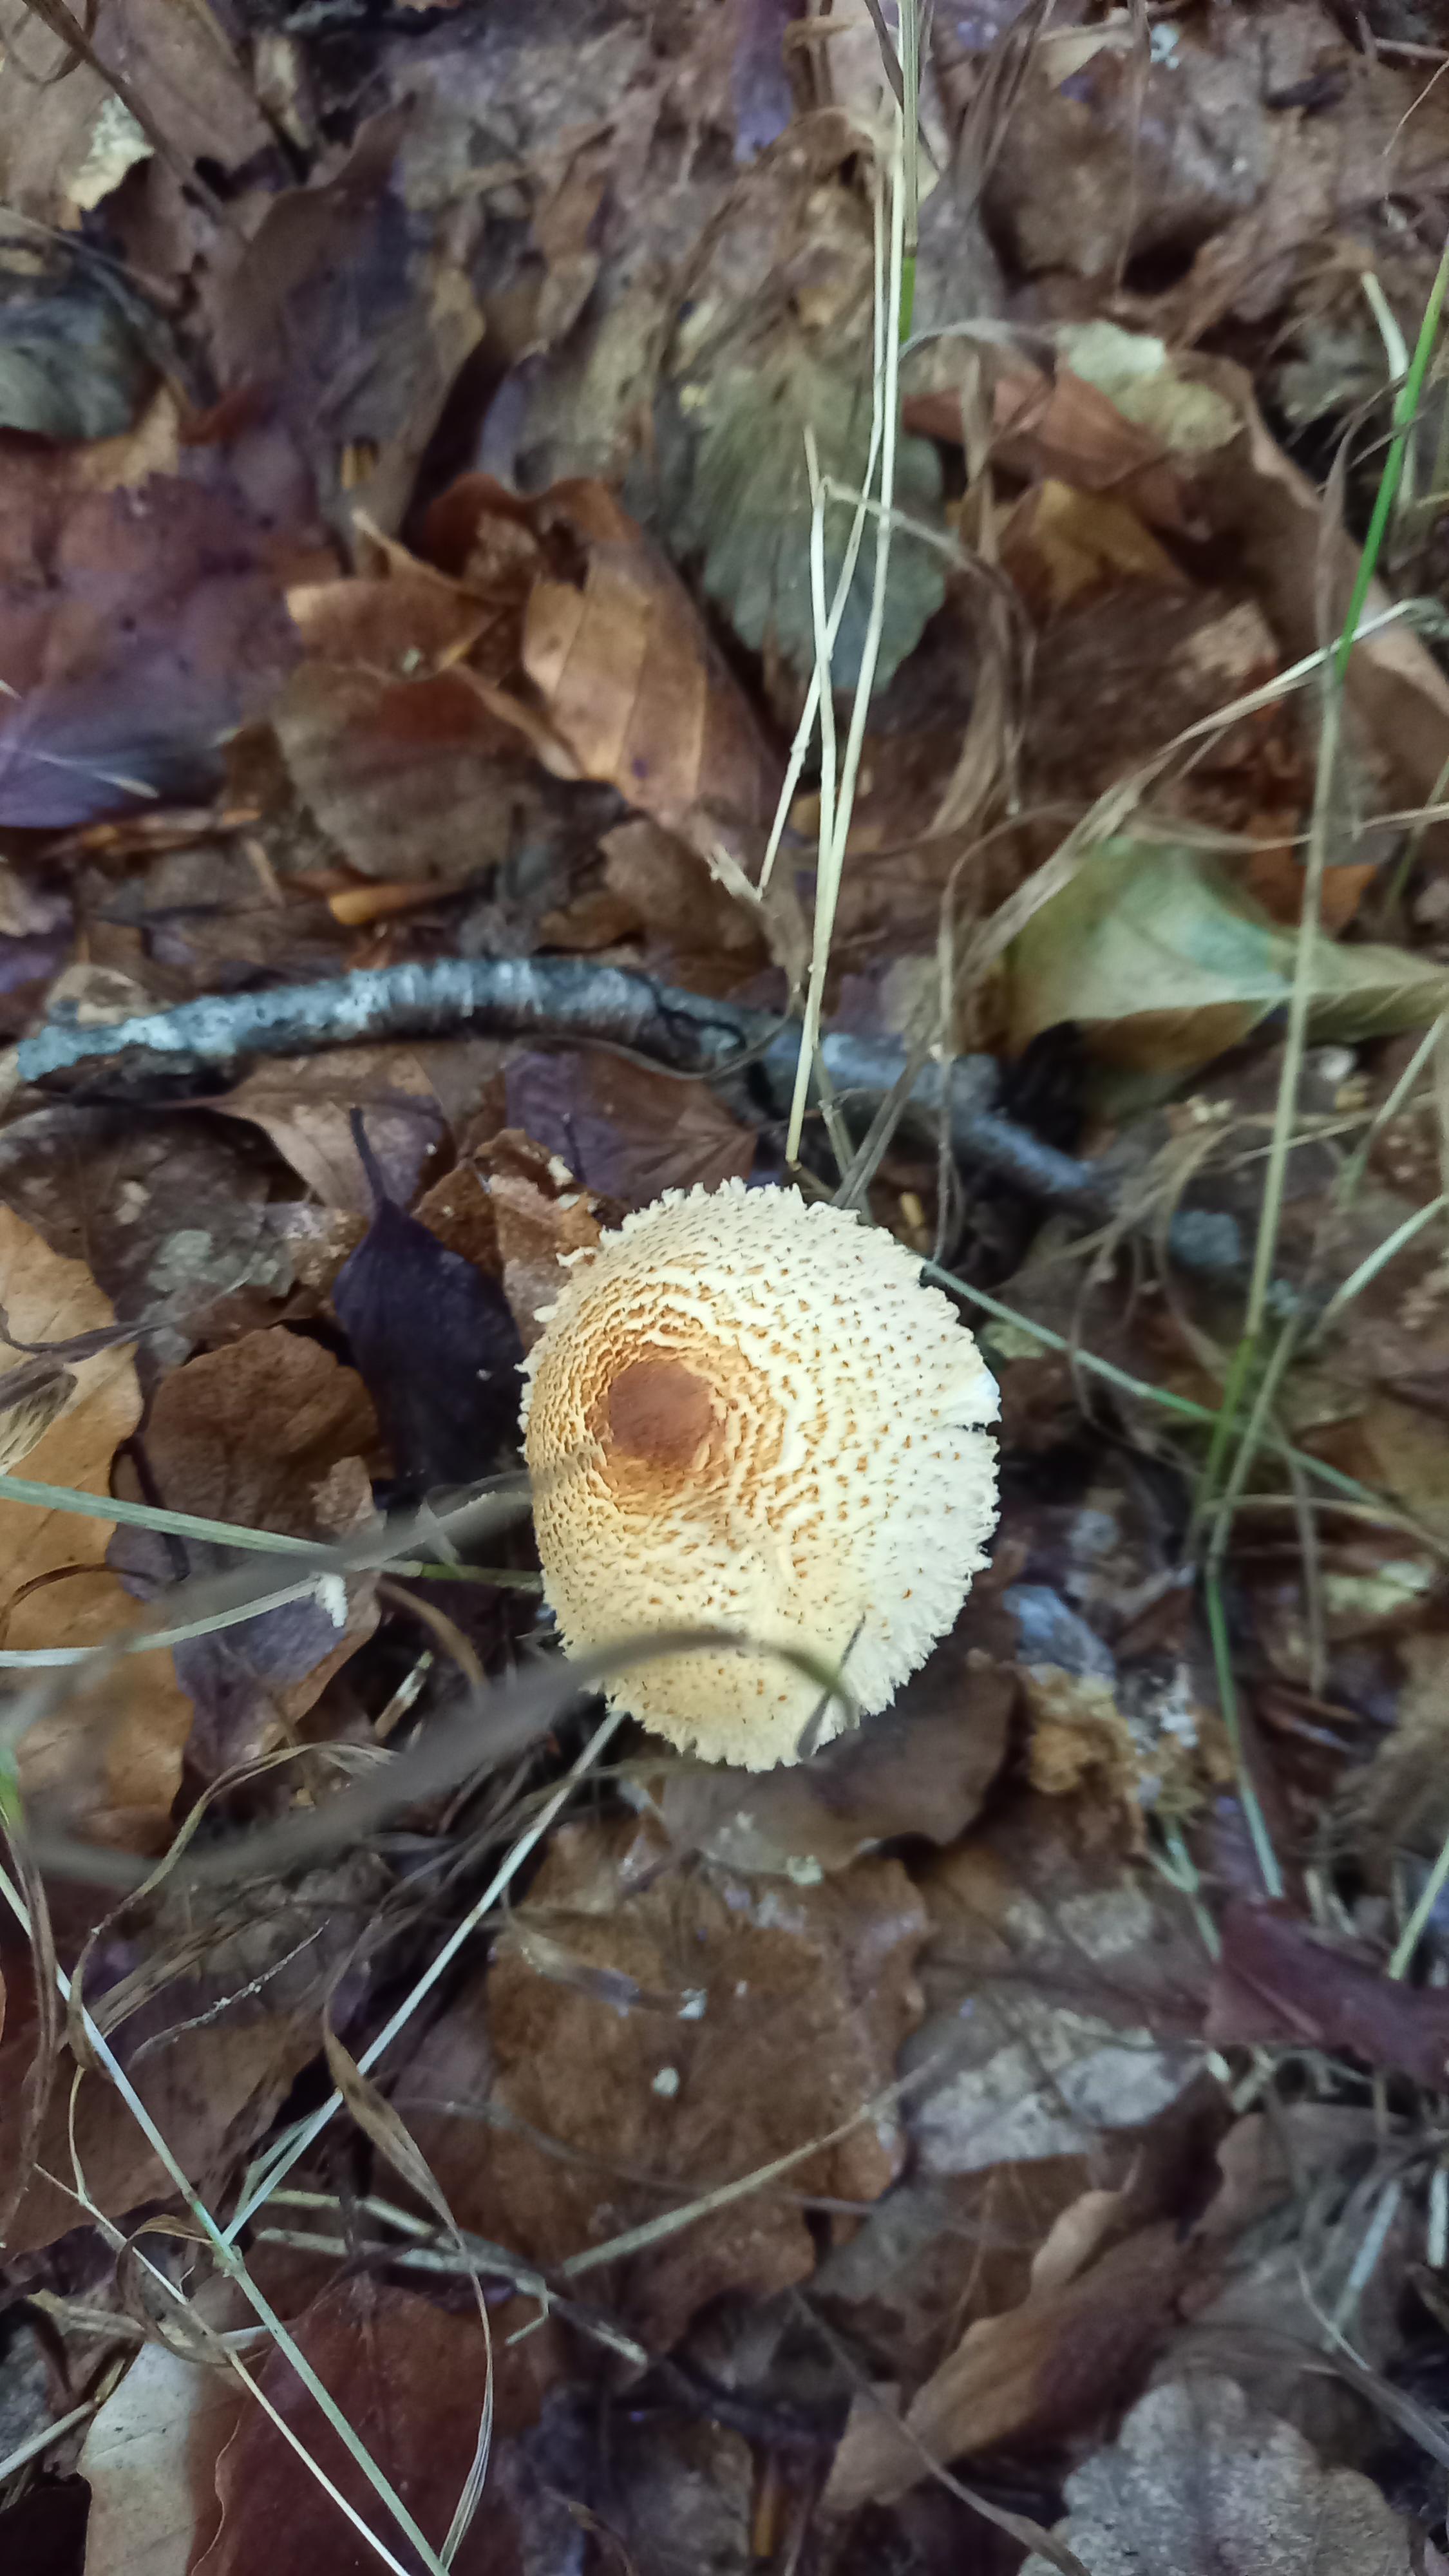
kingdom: Fungi
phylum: Basidiomycota
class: Agaricomycetes
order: Agaricales
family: Agaricaceae
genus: Lepiota
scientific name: Lepiota magnispora
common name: gulfnugget parasolhat
